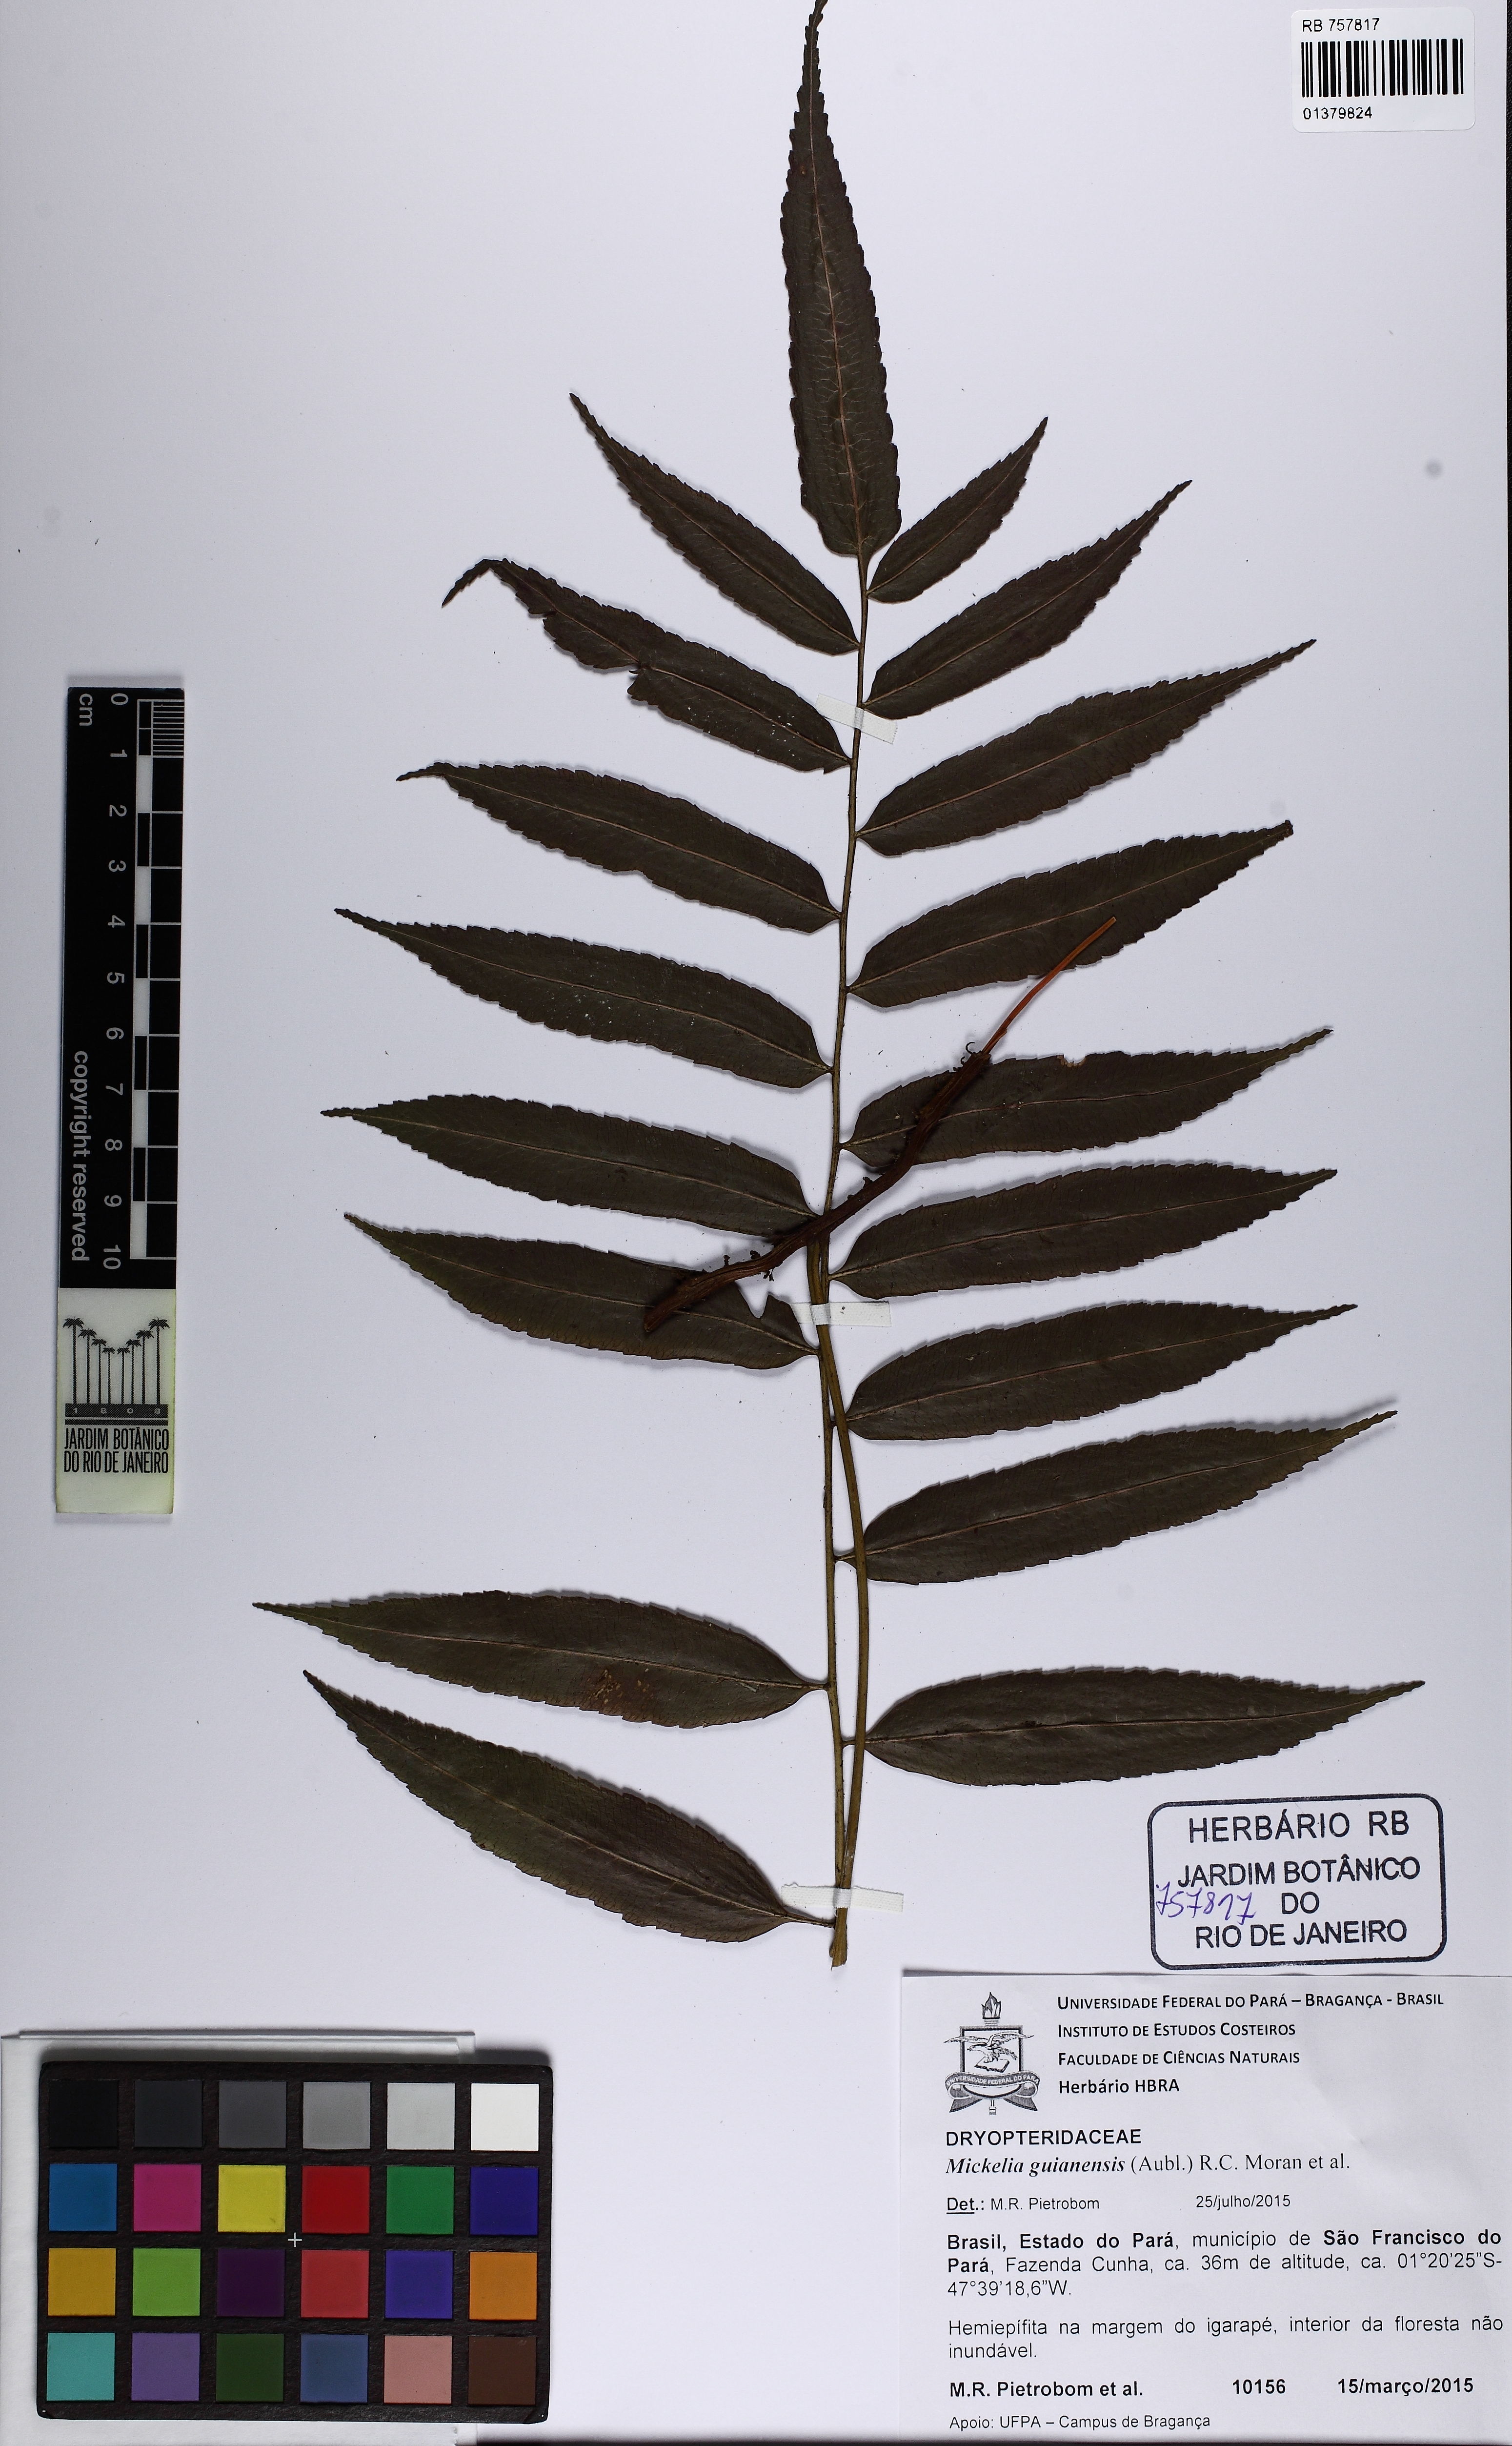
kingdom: Plantae
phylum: Tracheophyta
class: Polypodiopsida
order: Polypodiales
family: Dryopteridaceae
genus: Mickelia
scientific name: Mickelia guianensis
